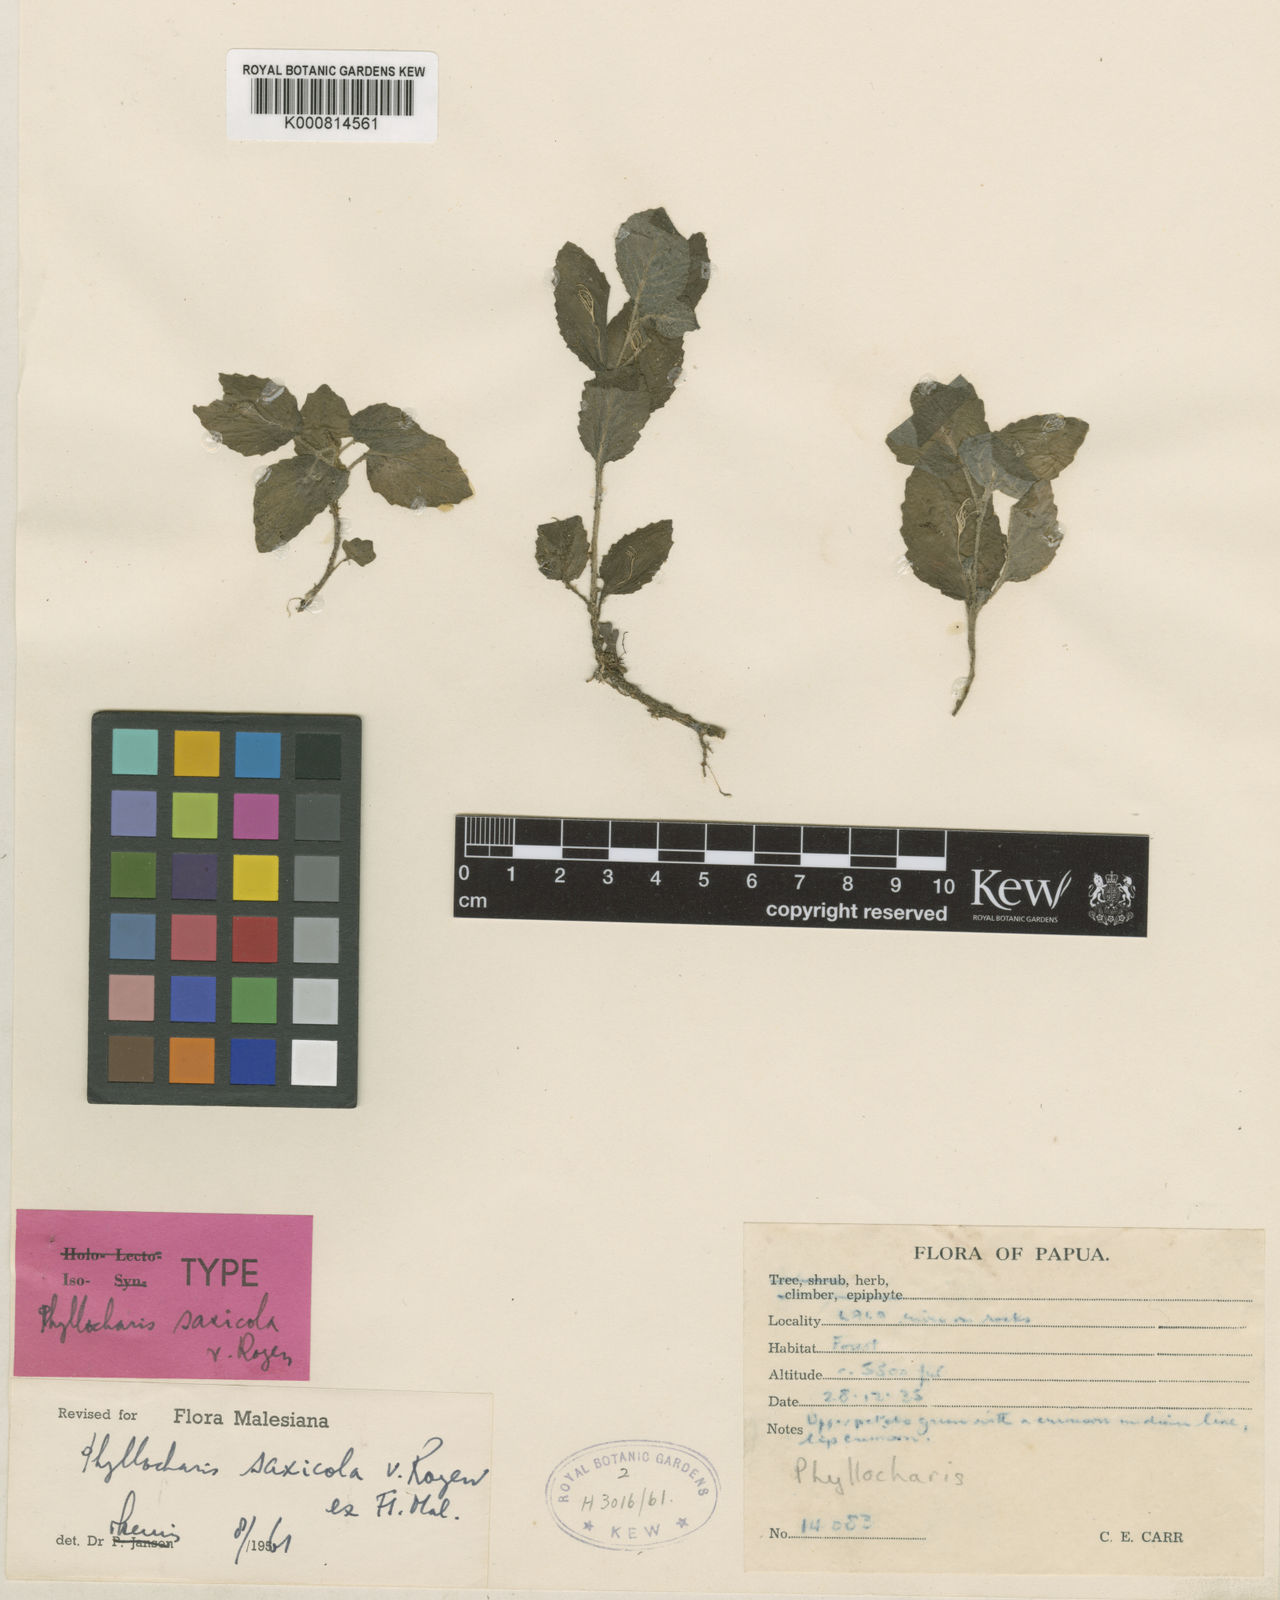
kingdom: Plantae
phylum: Tracheophyta
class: Magnoliopsida
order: Asterales
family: Campanulaceae
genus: Ruthiella
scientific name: Ruthiella saxicola
